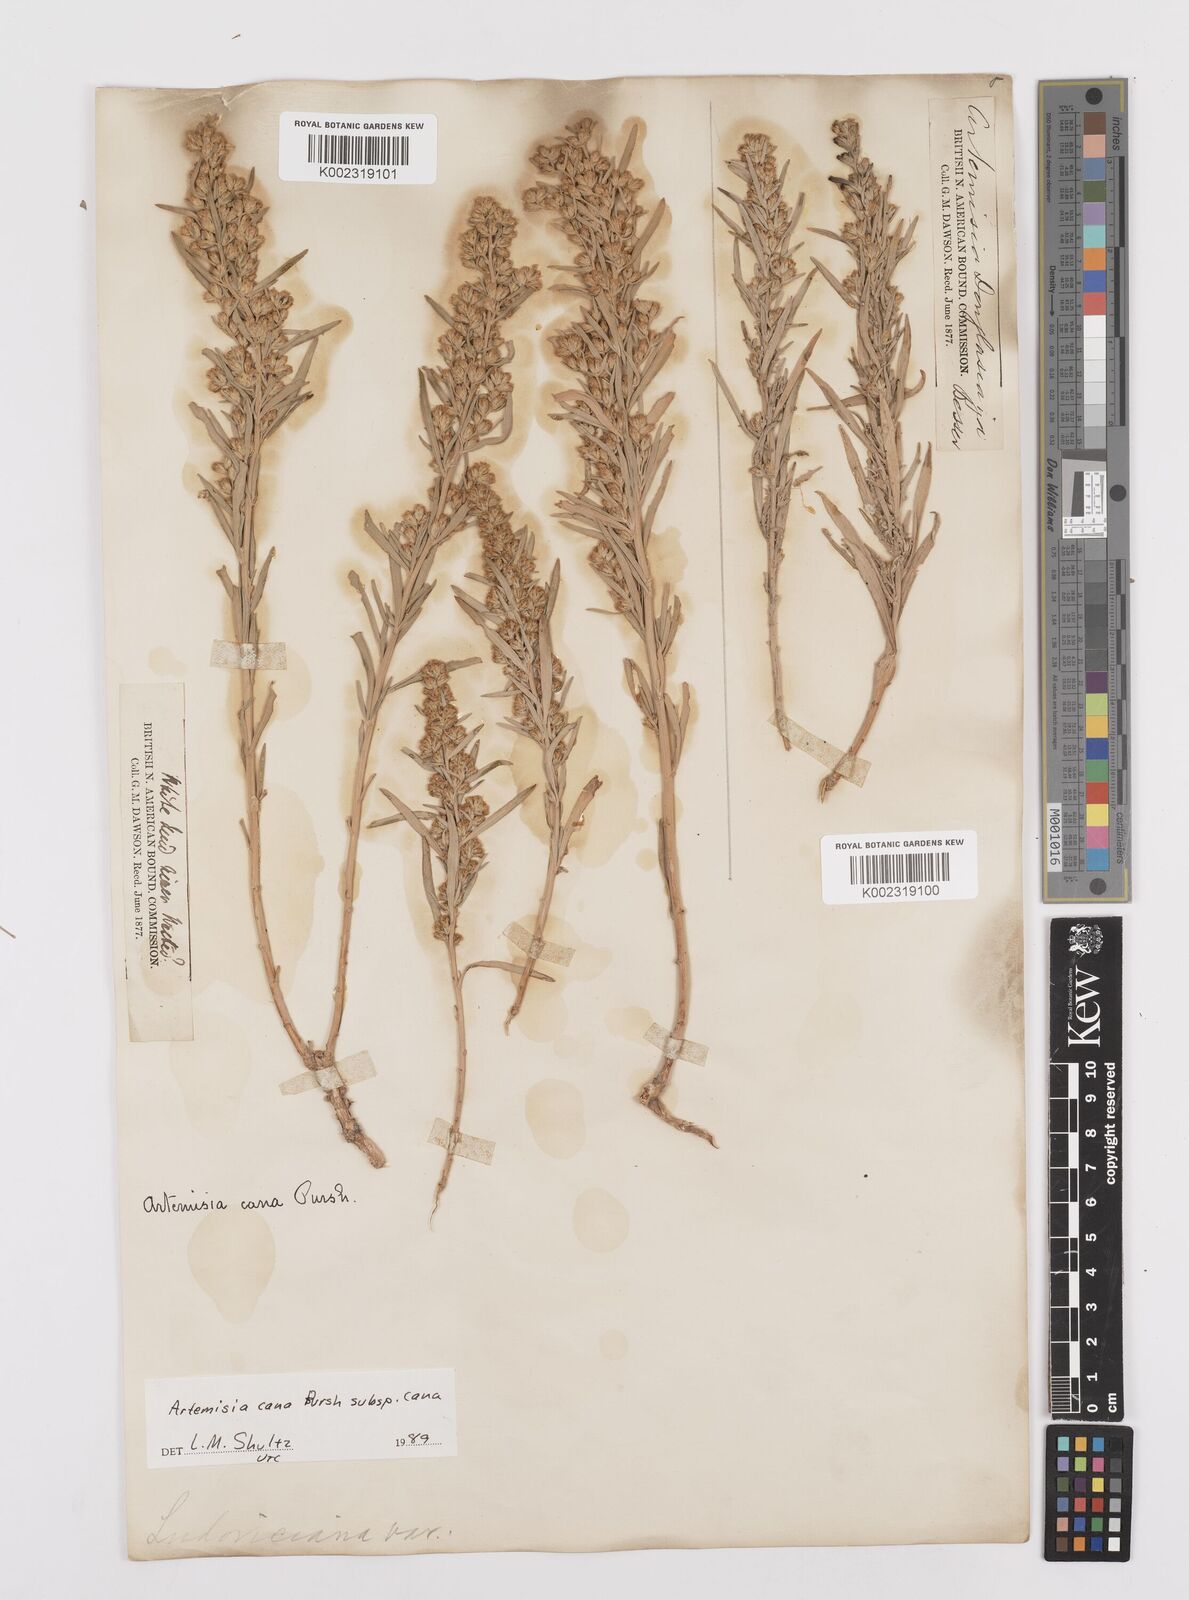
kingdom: Plantae
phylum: Tracheophyta
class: Magnoliopsida
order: Asterales
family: Asteraceae
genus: Artemisia
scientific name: Artemisia cana
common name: Silver sagebrush
